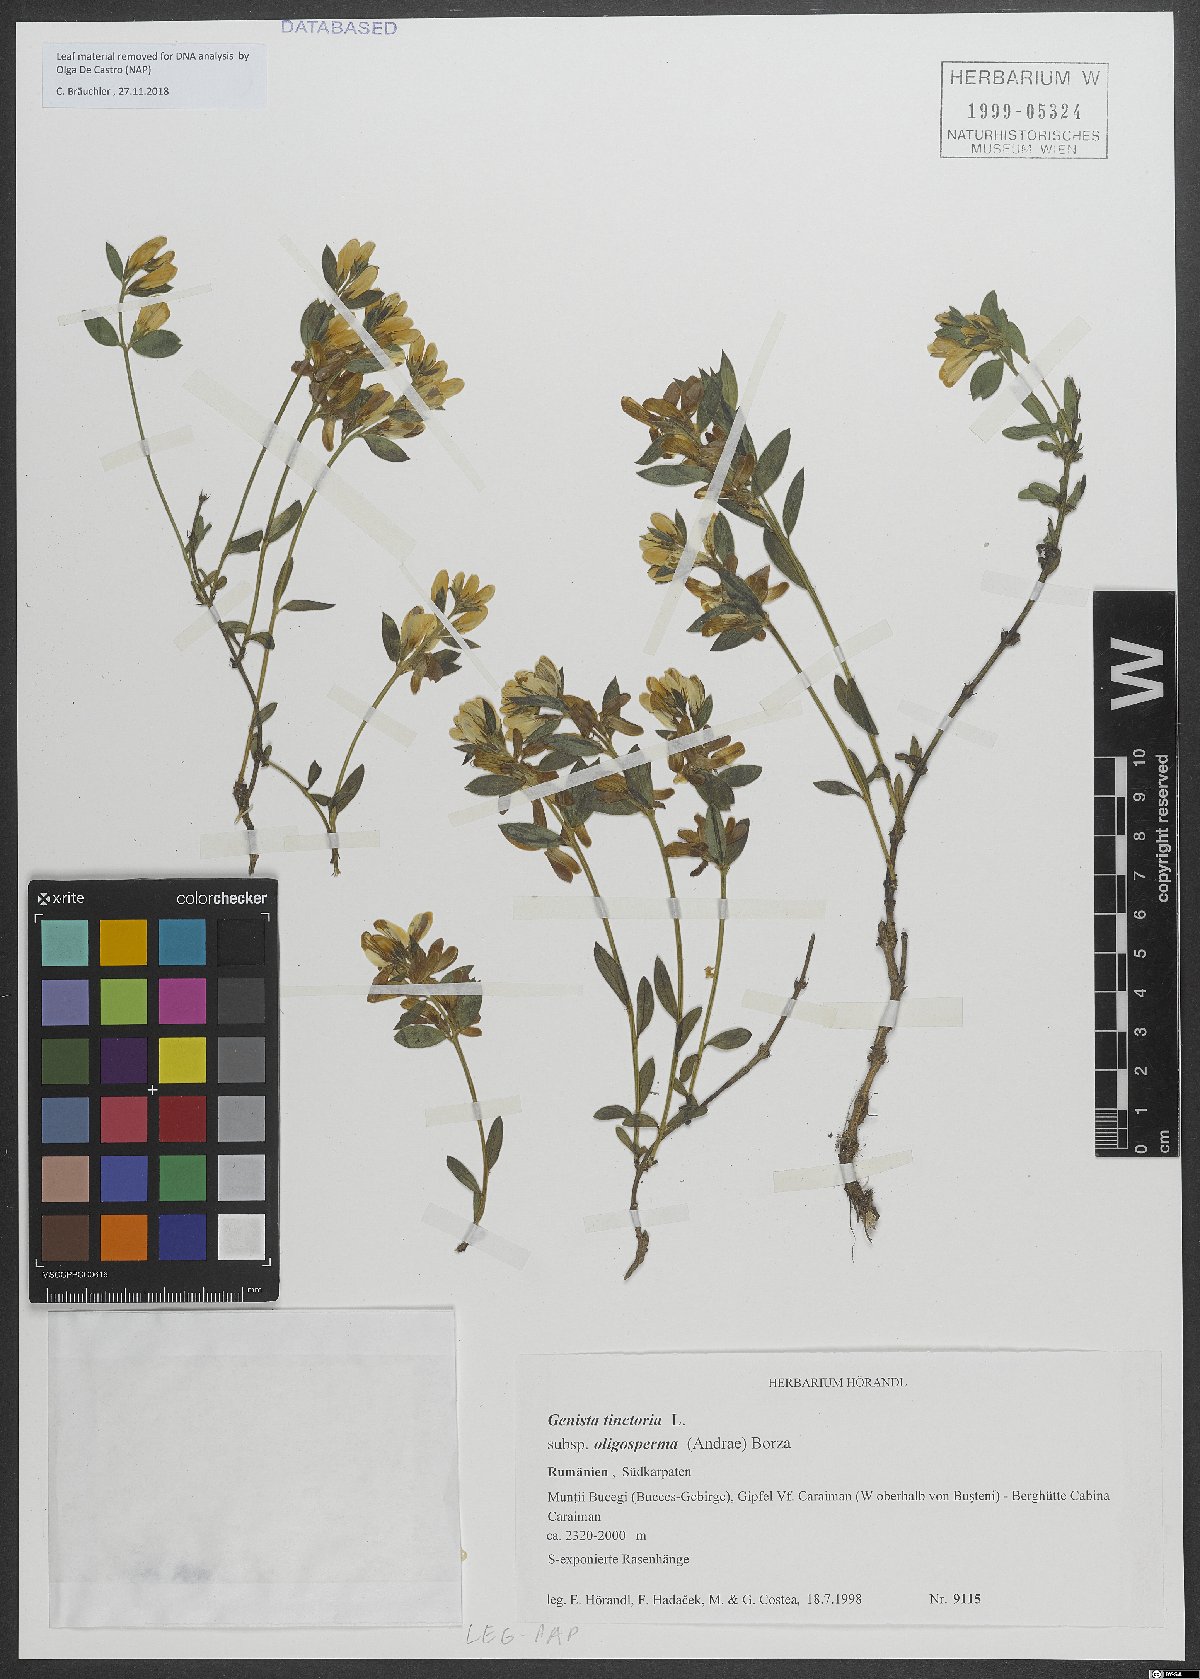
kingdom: Plantae
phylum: Tracheophyta
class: Magnoliopsida
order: Fabales
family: Fabaceae
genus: Genista
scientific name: Genista
